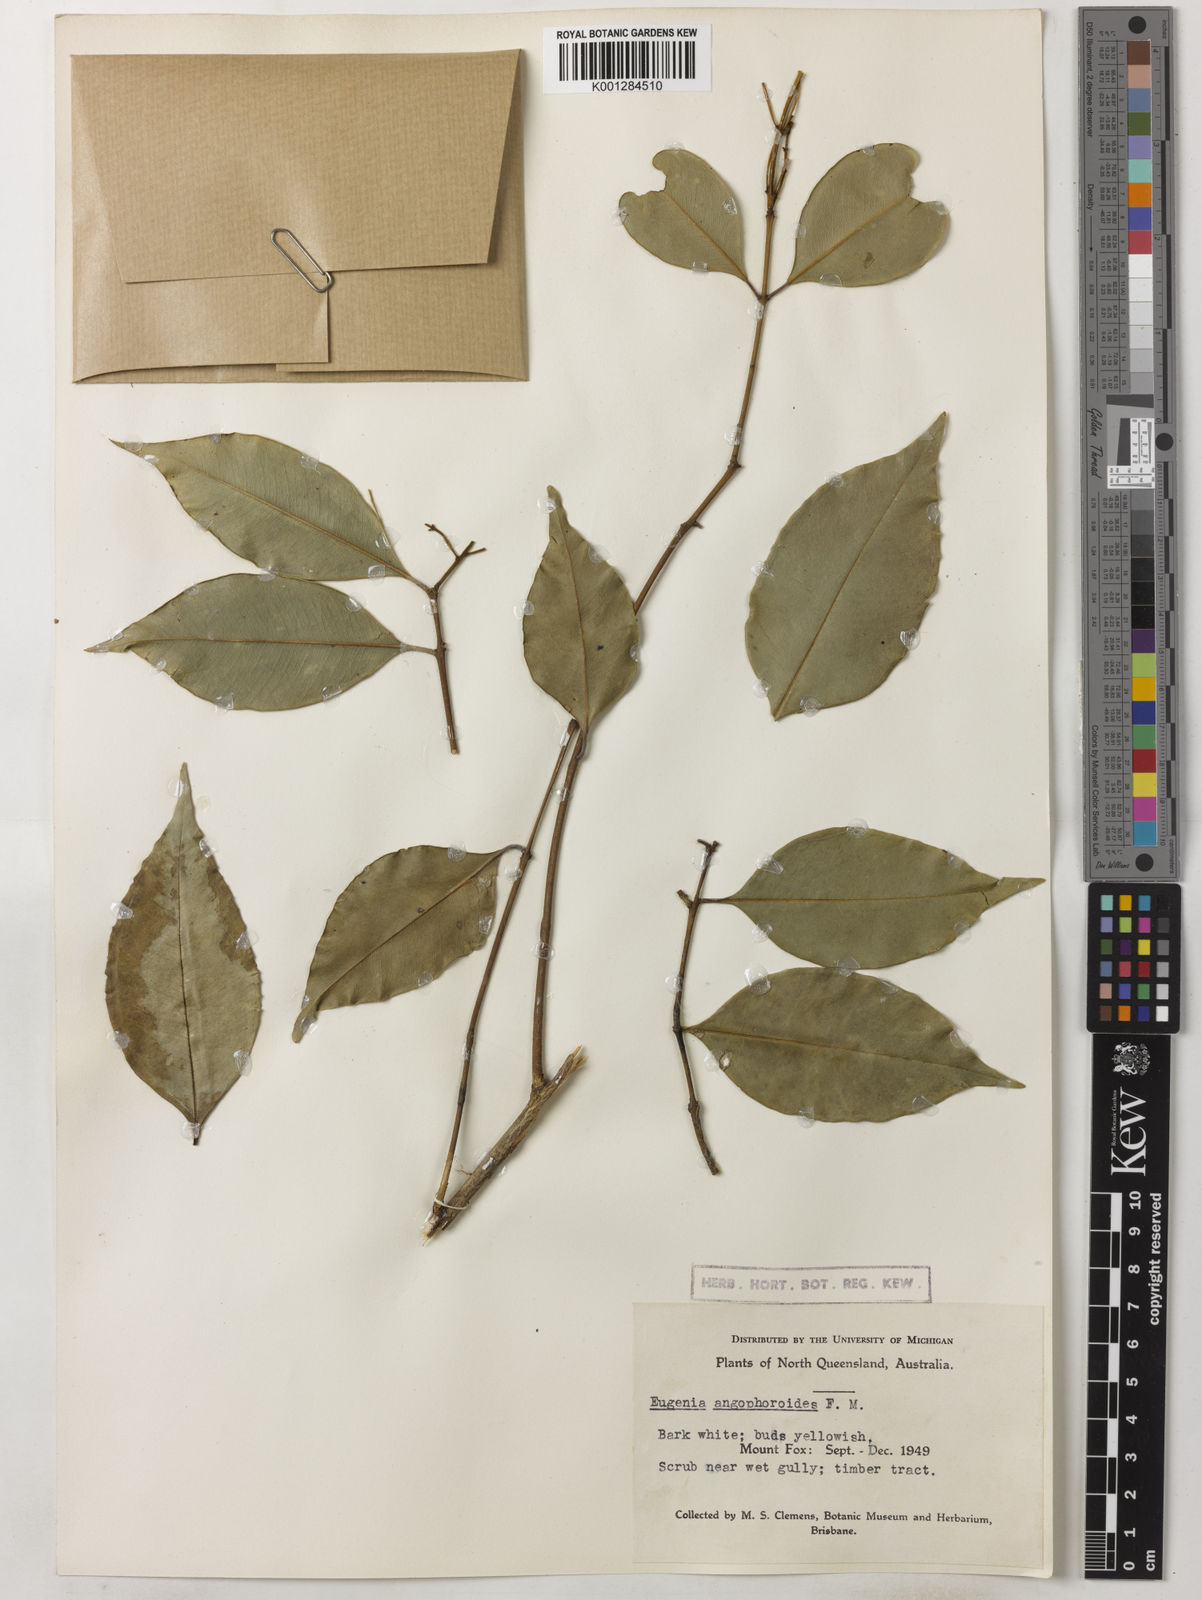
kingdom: Plantae
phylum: Tracheophyta
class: Magnoliopsida
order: Myrtales
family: Myrtaceae
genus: Syzygium
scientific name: Syzygium unipunctatum
